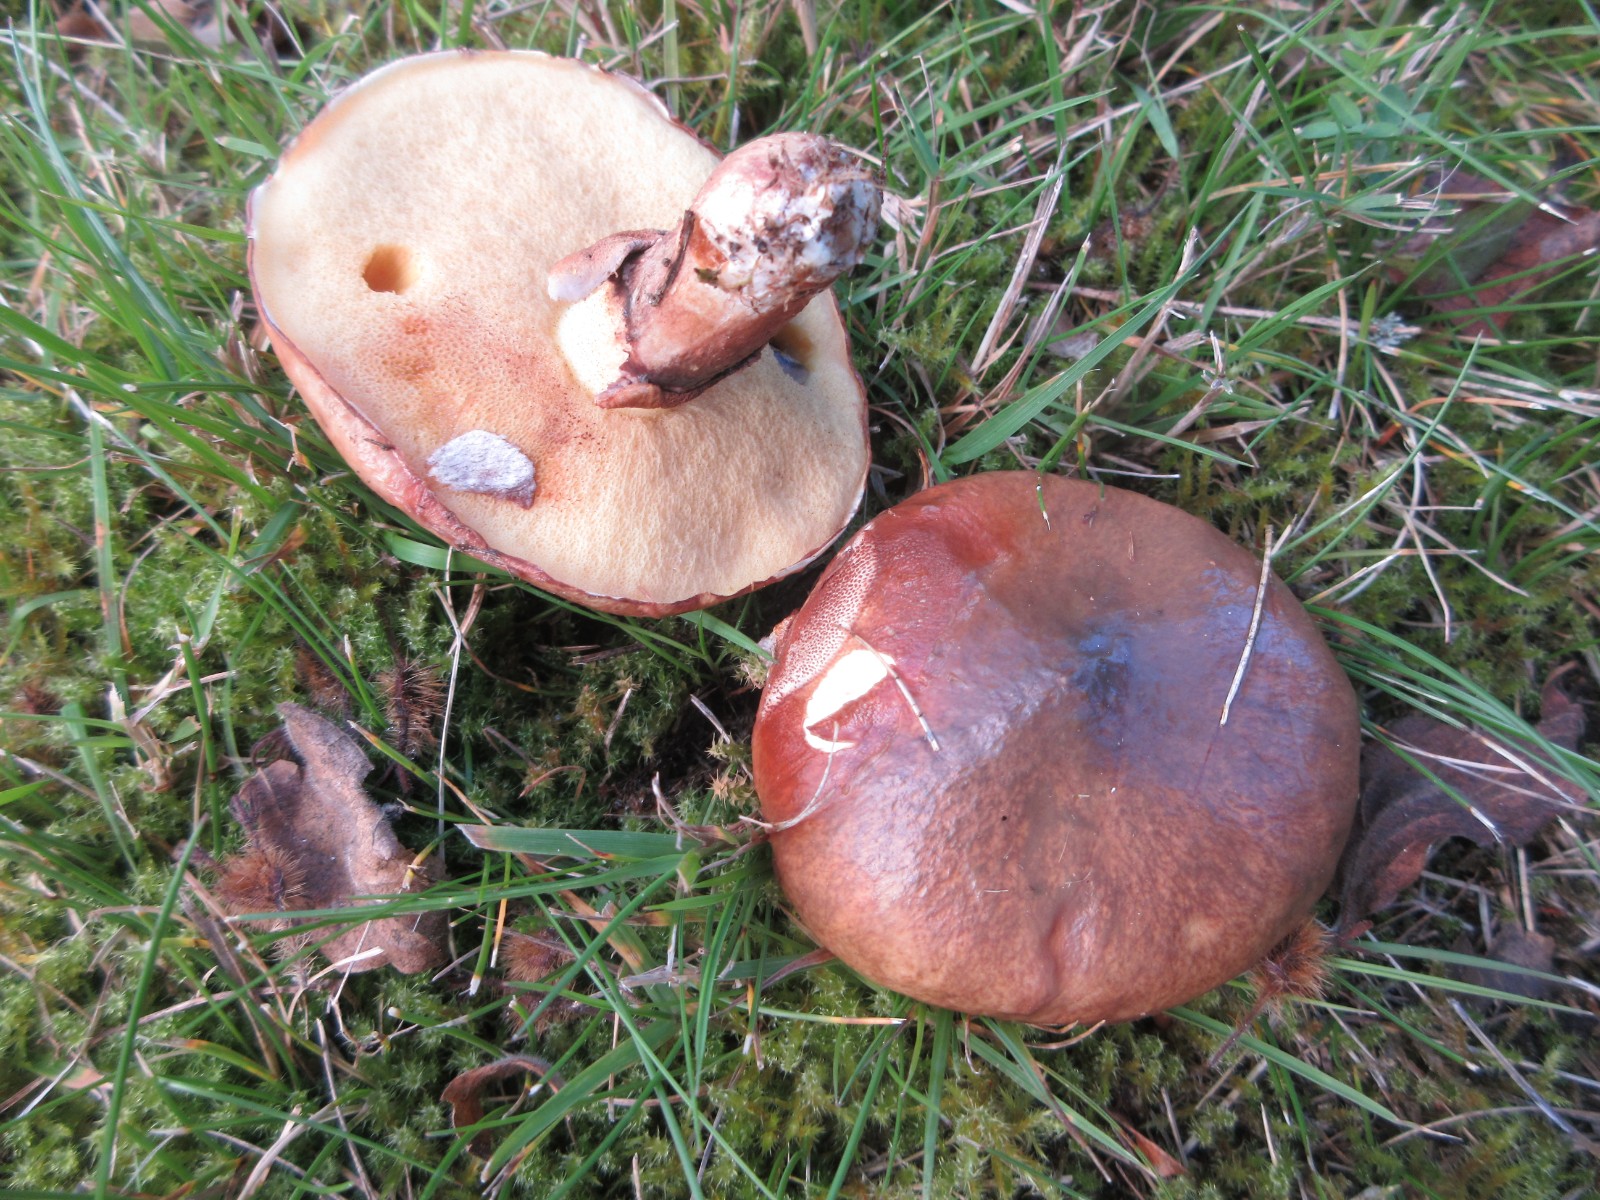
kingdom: Fungi
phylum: Basidiomycota
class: Agaricomycetes
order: Boletales
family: Suillaceae
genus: Suillus
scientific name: Suillus luteus
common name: brungul slimrørhat
